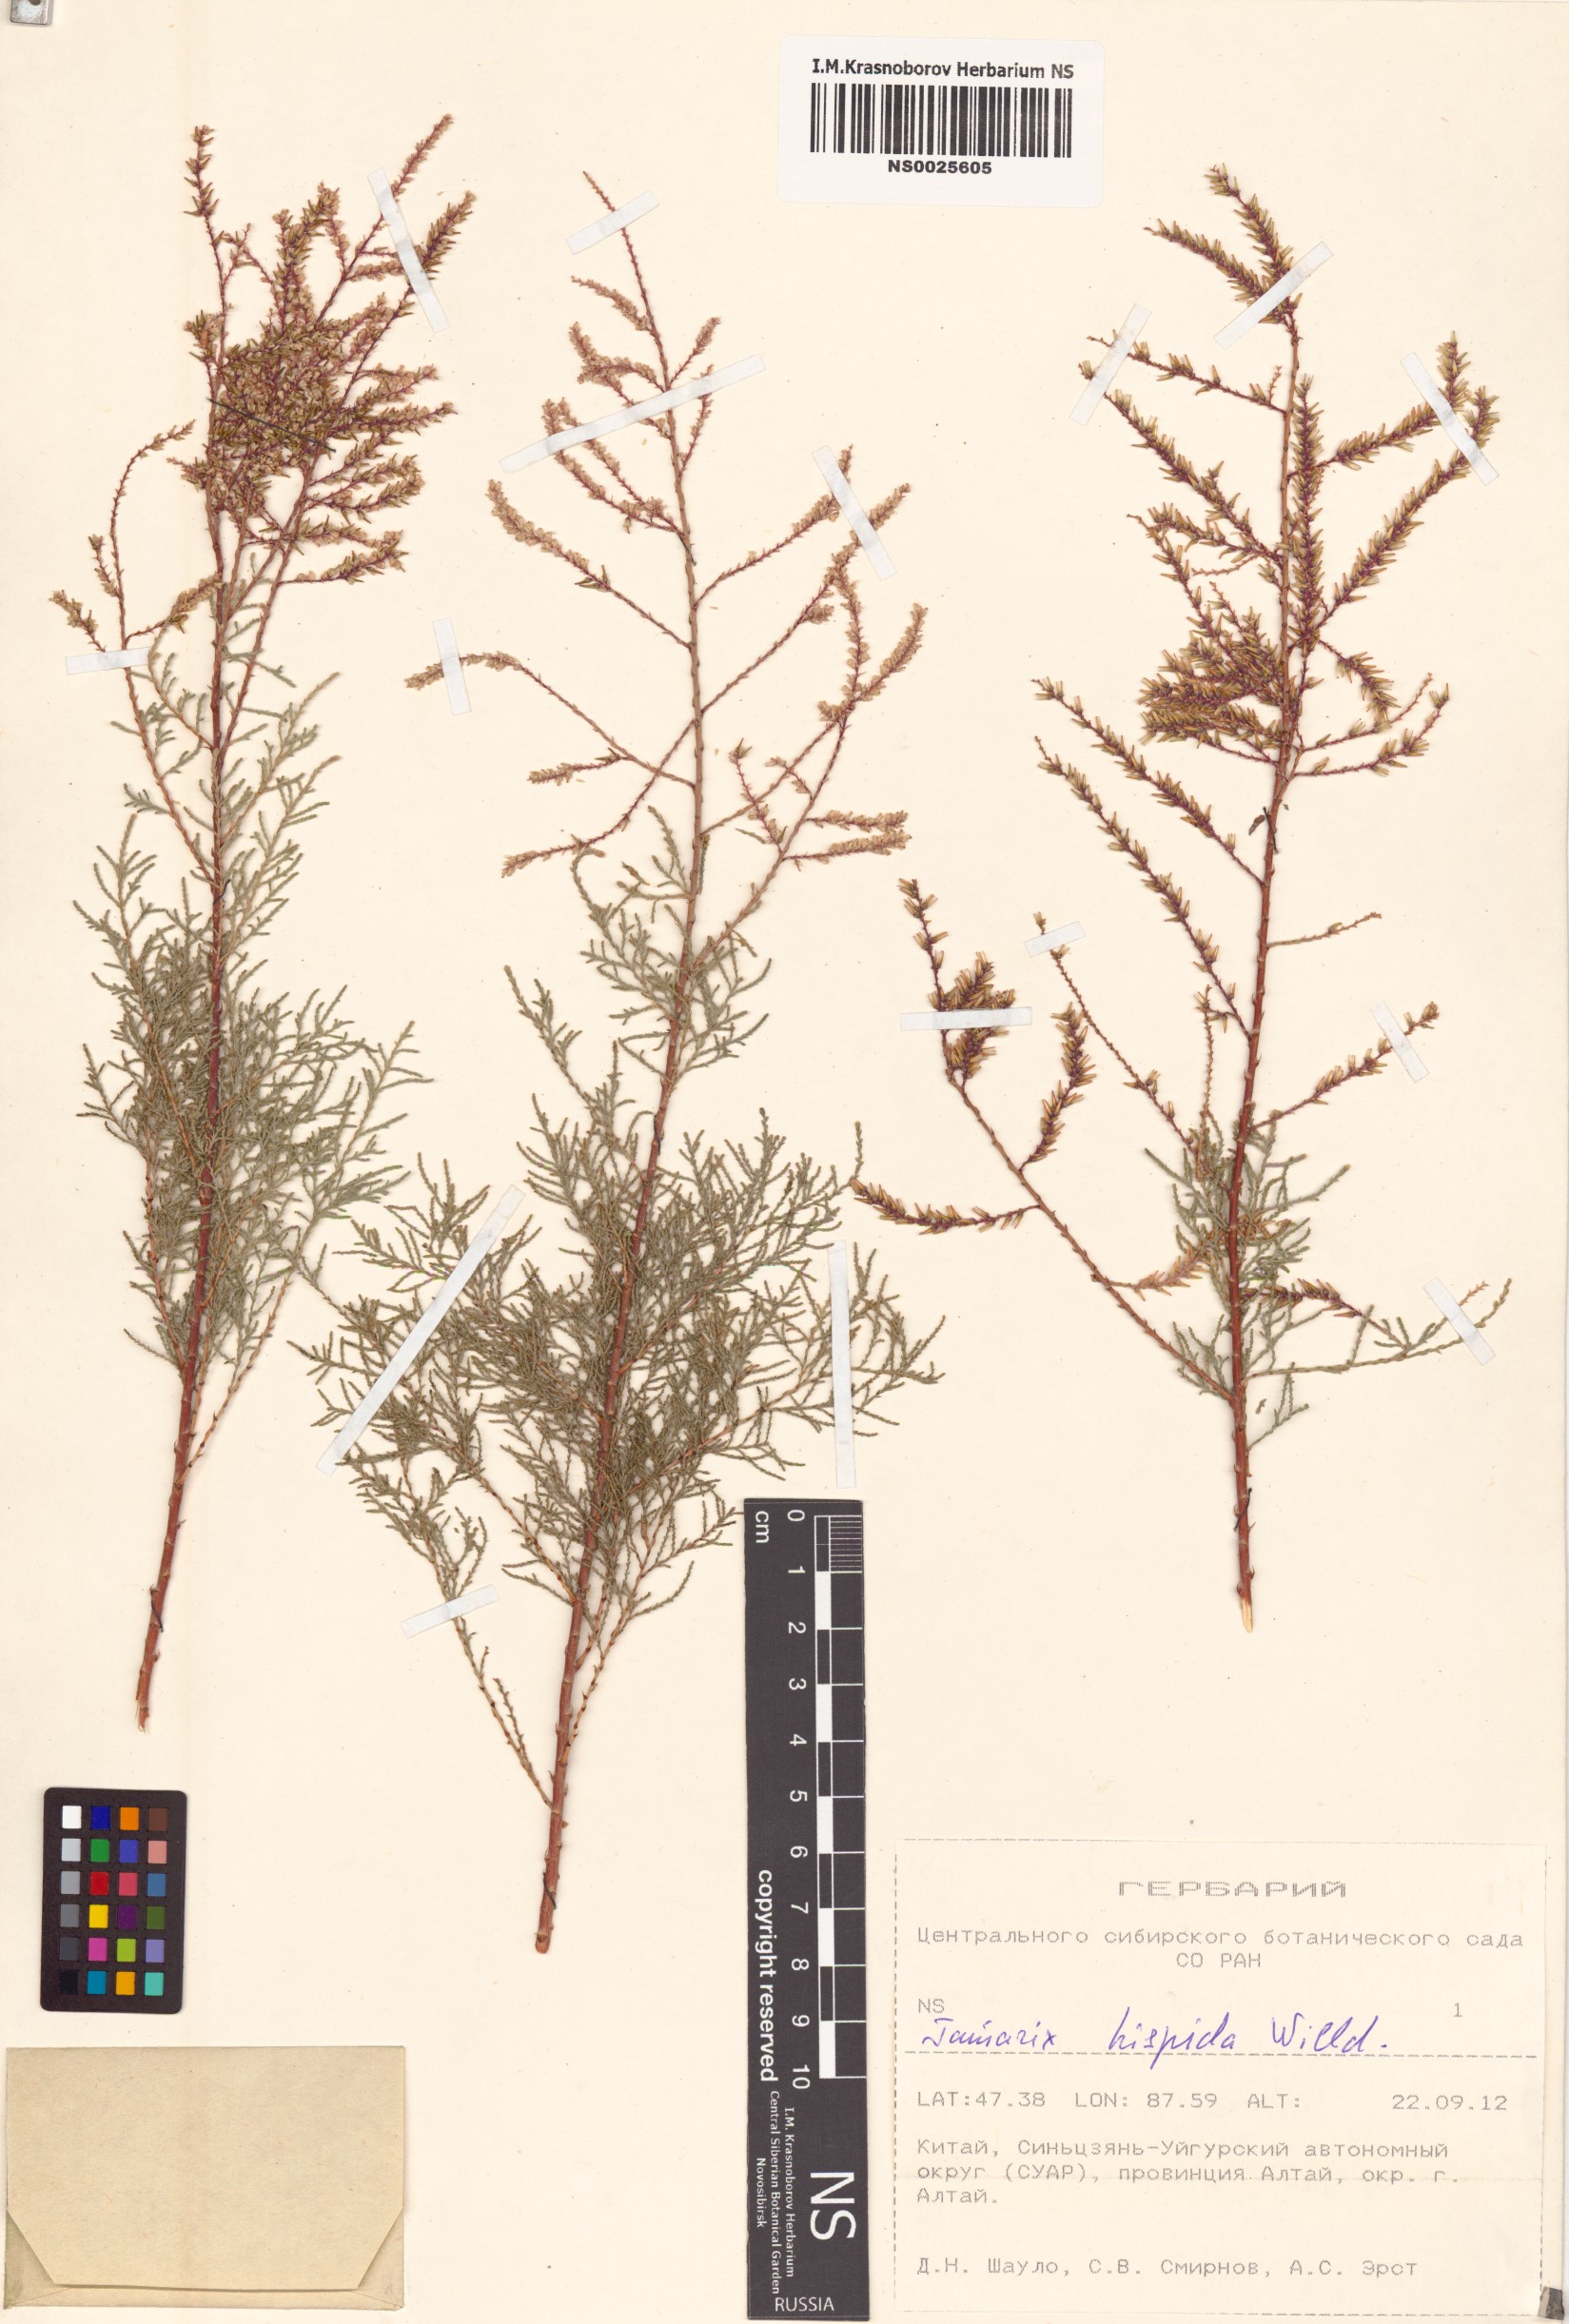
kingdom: Plantae
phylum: Tracheophyta
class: Magnoliopsida
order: Caryophyllales
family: Tamaricaceae
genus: Tamarix
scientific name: Tamarix hispida
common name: Kashgar tamarisk
